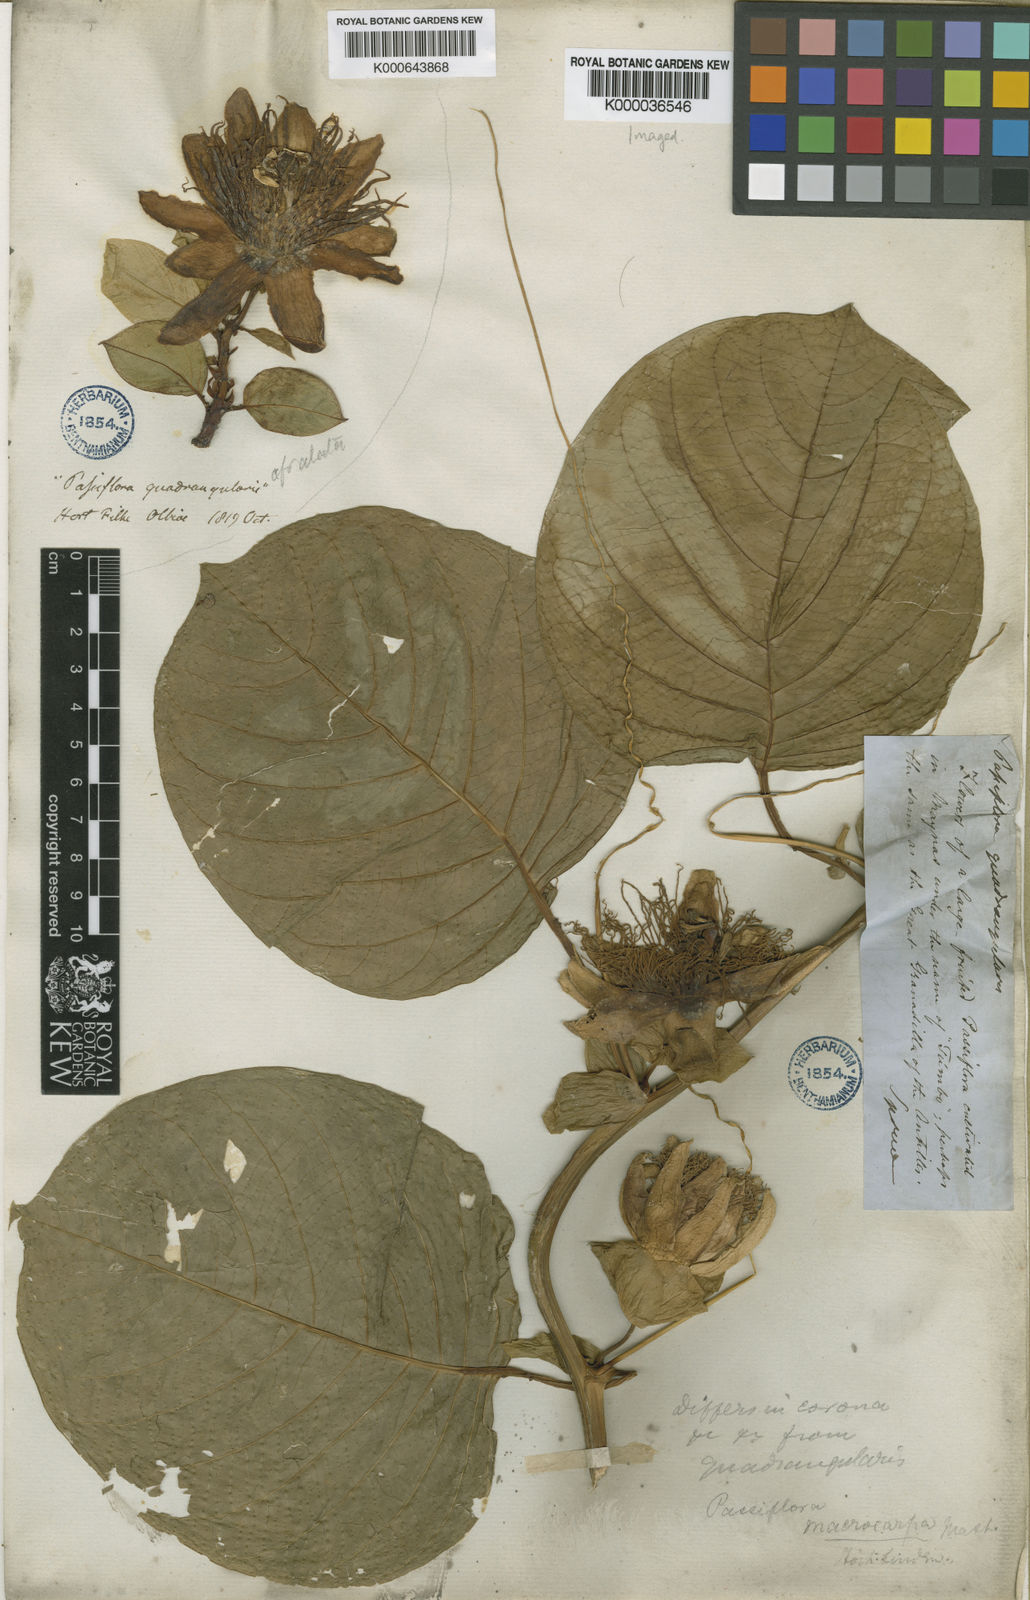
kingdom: Plantae
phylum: Tracheophyta
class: Magnoliopsida
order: Malpighiales
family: Passifloraceae
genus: Passiflora
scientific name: Passiflora quadrangularis
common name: Giant granadilla
